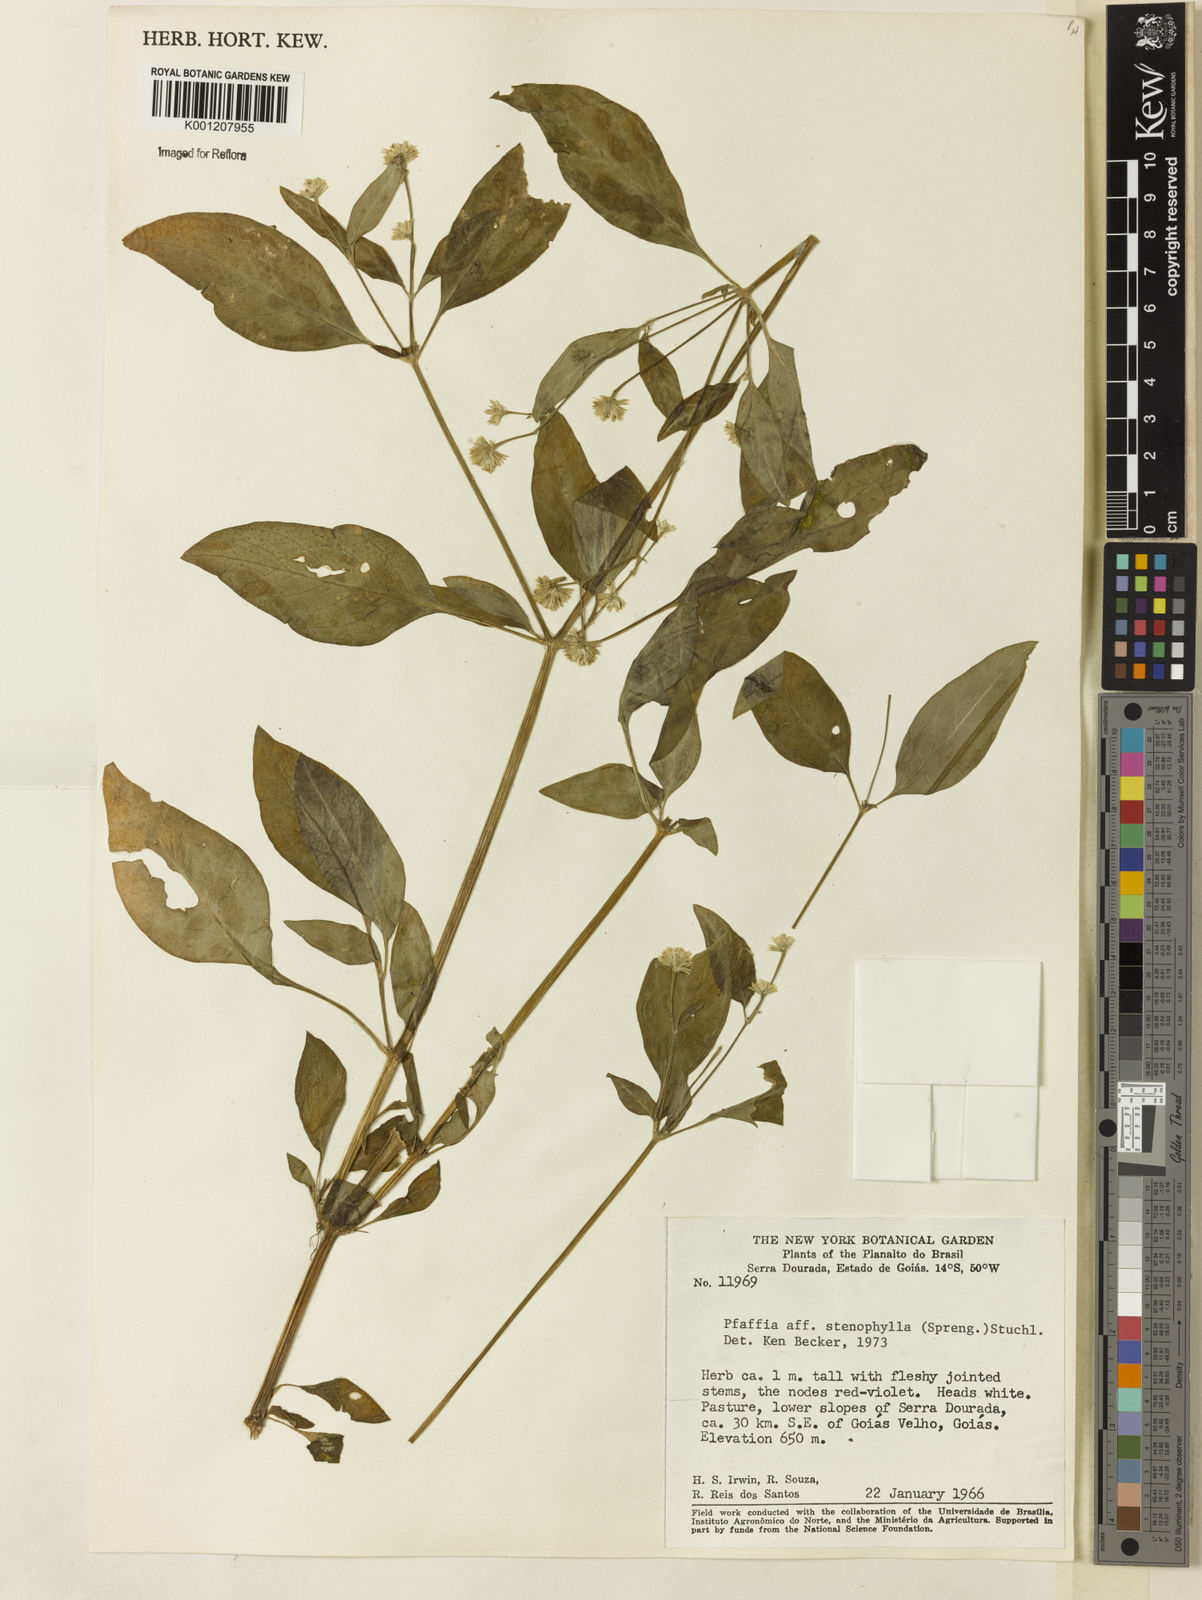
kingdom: Plantae
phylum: Tracheophyta
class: Magnoliopsida
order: Caryophyllales
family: Amaranthaceae
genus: Pfaffia
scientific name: Pfaffia
